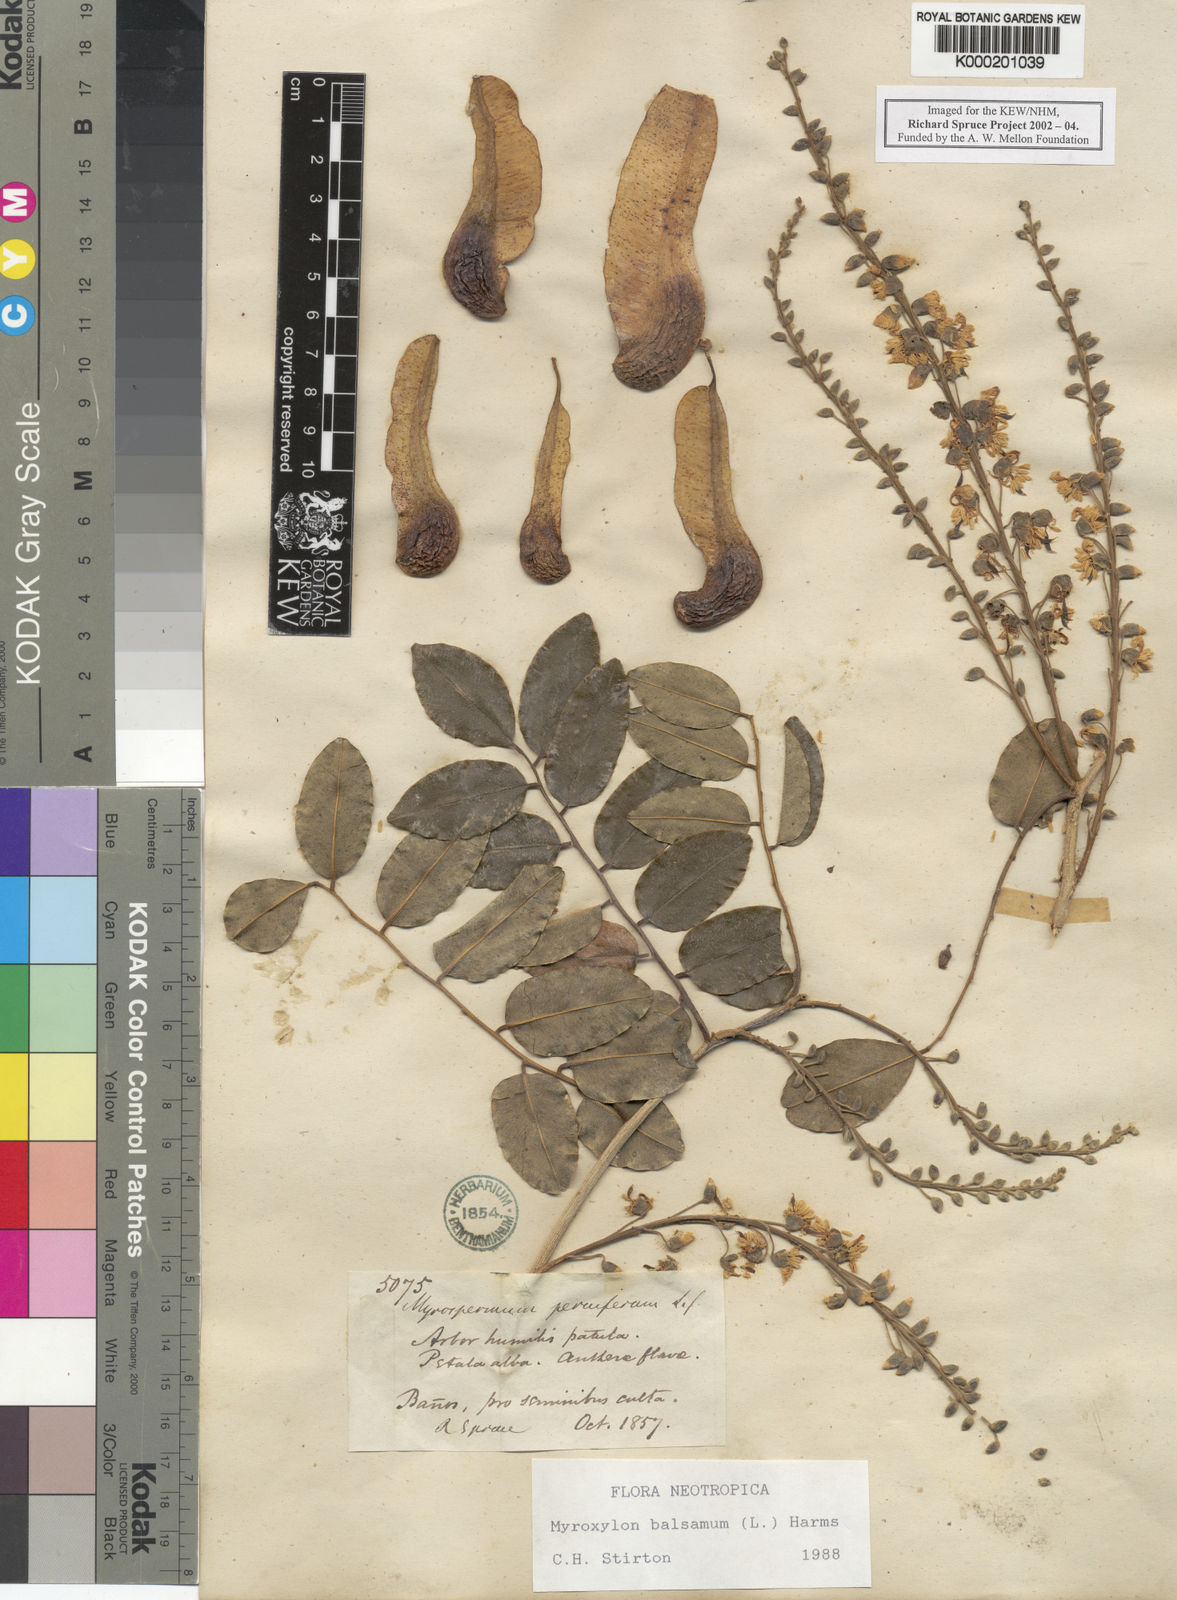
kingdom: Plantae
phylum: Tracheophyta
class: Magnoliopsida
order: Fabales
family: Fabaceae
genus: Myroxylon
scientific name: Myroxylon balsamum
